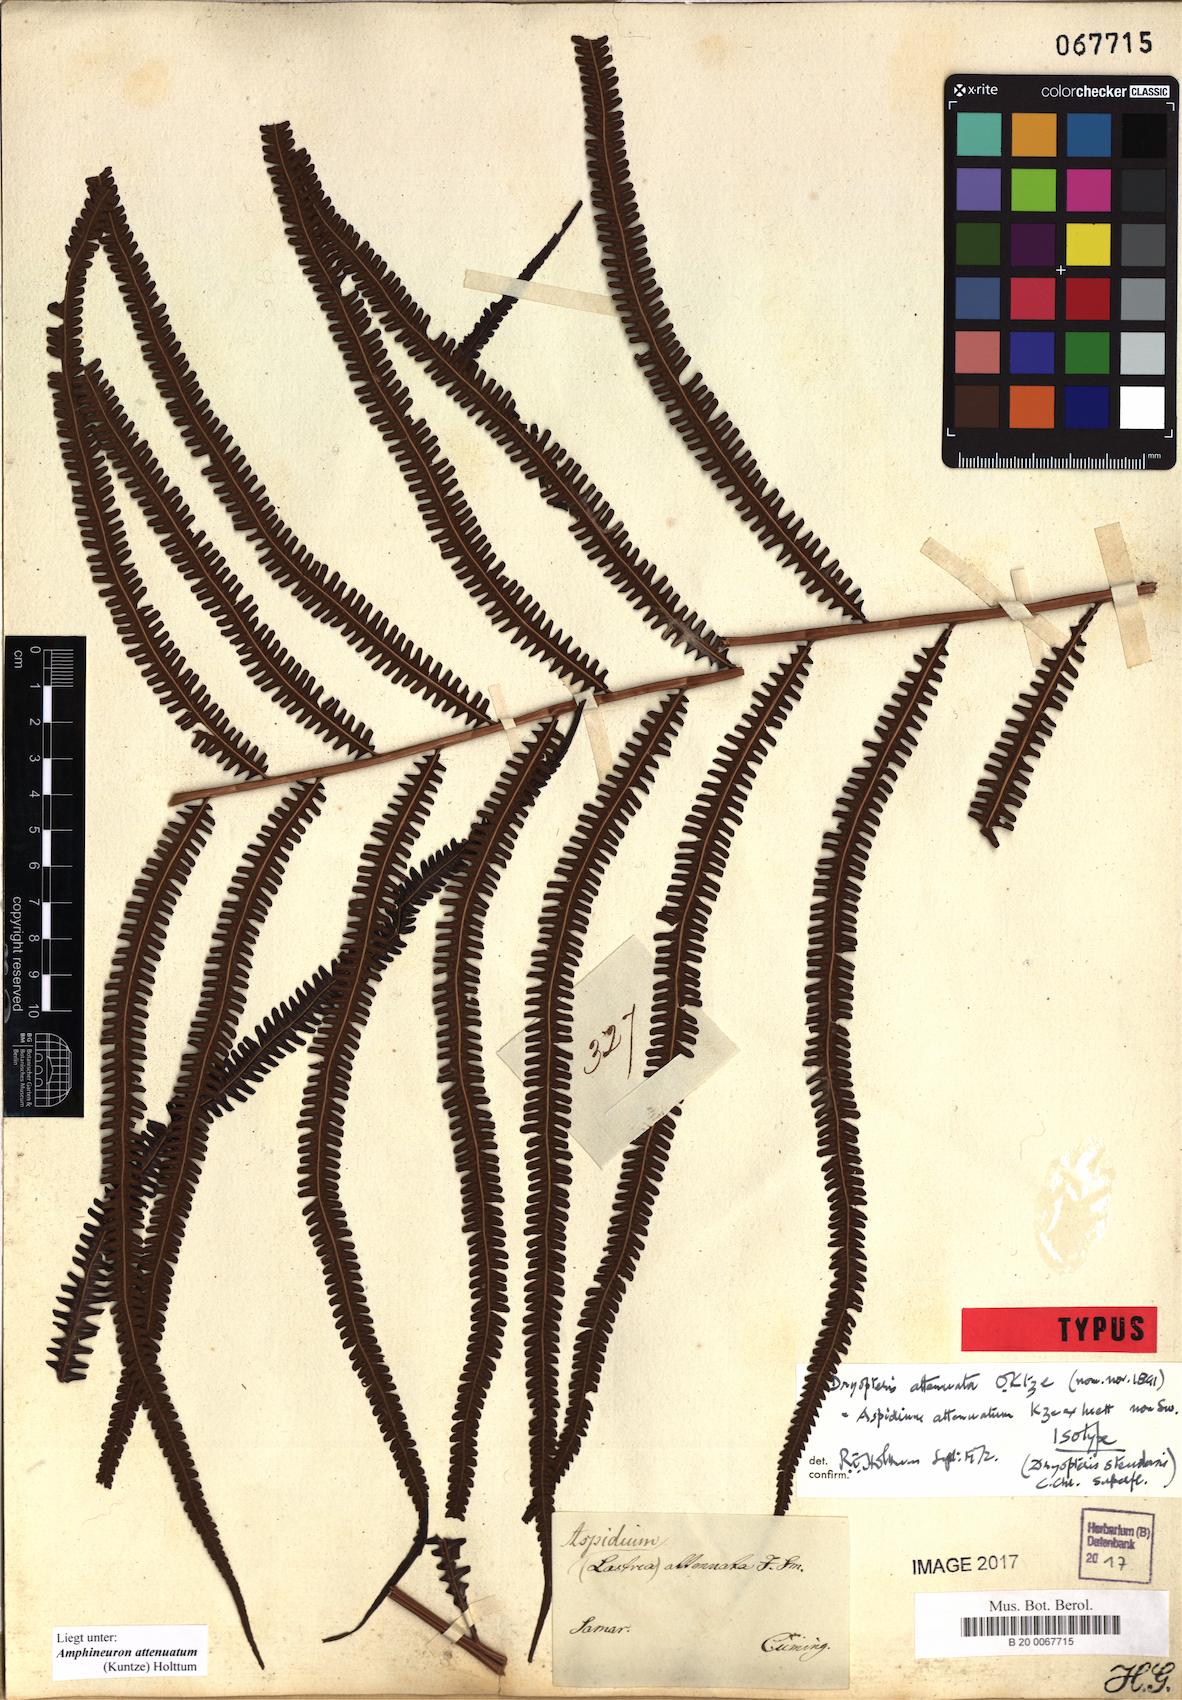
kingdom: Plantae
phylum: Tracheophyta
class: Polypodiopsida
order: Polypodiales
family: Thelypteridaceae
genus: Mesopteris
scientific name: Mesopteris attenuata
